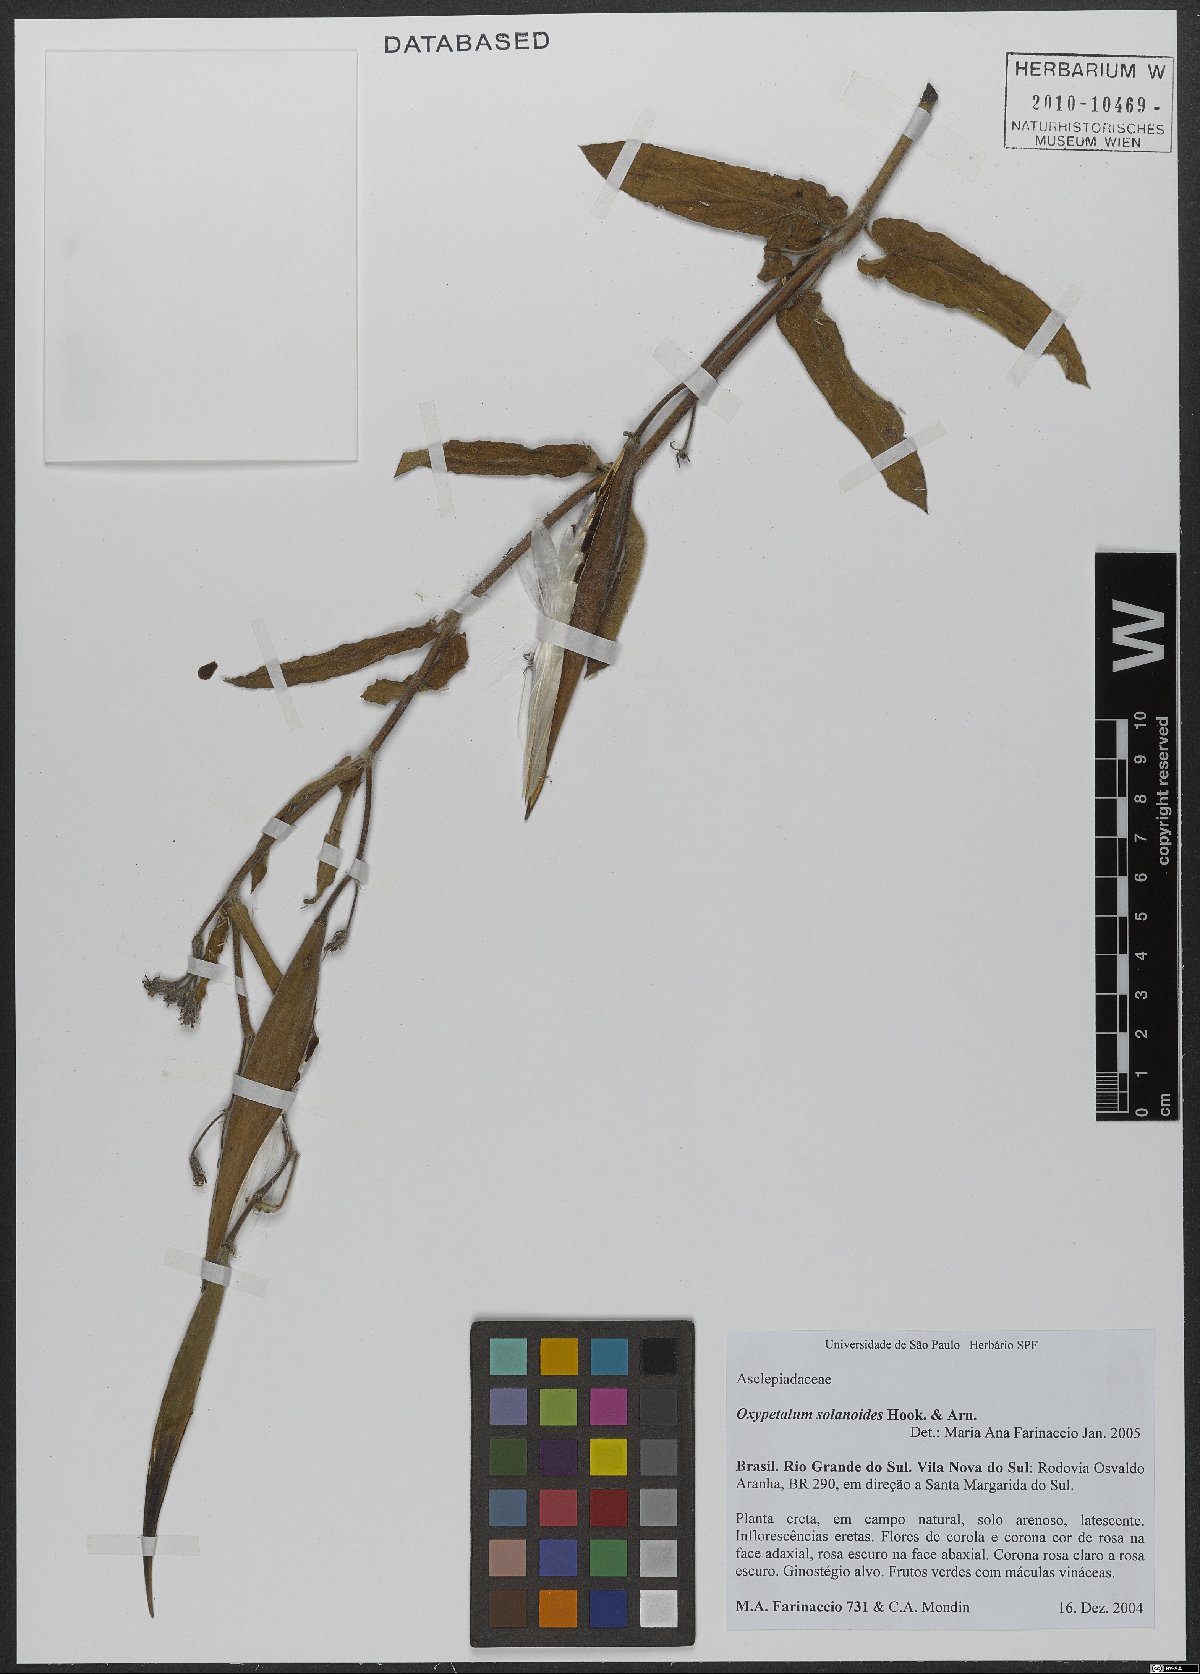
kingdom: Plantae
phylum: Tracheophyta
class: Magnoliopsida
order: Gentianales
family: Apocynaceae
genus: Oxypetalum
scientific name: Oxypetalum solanoides
